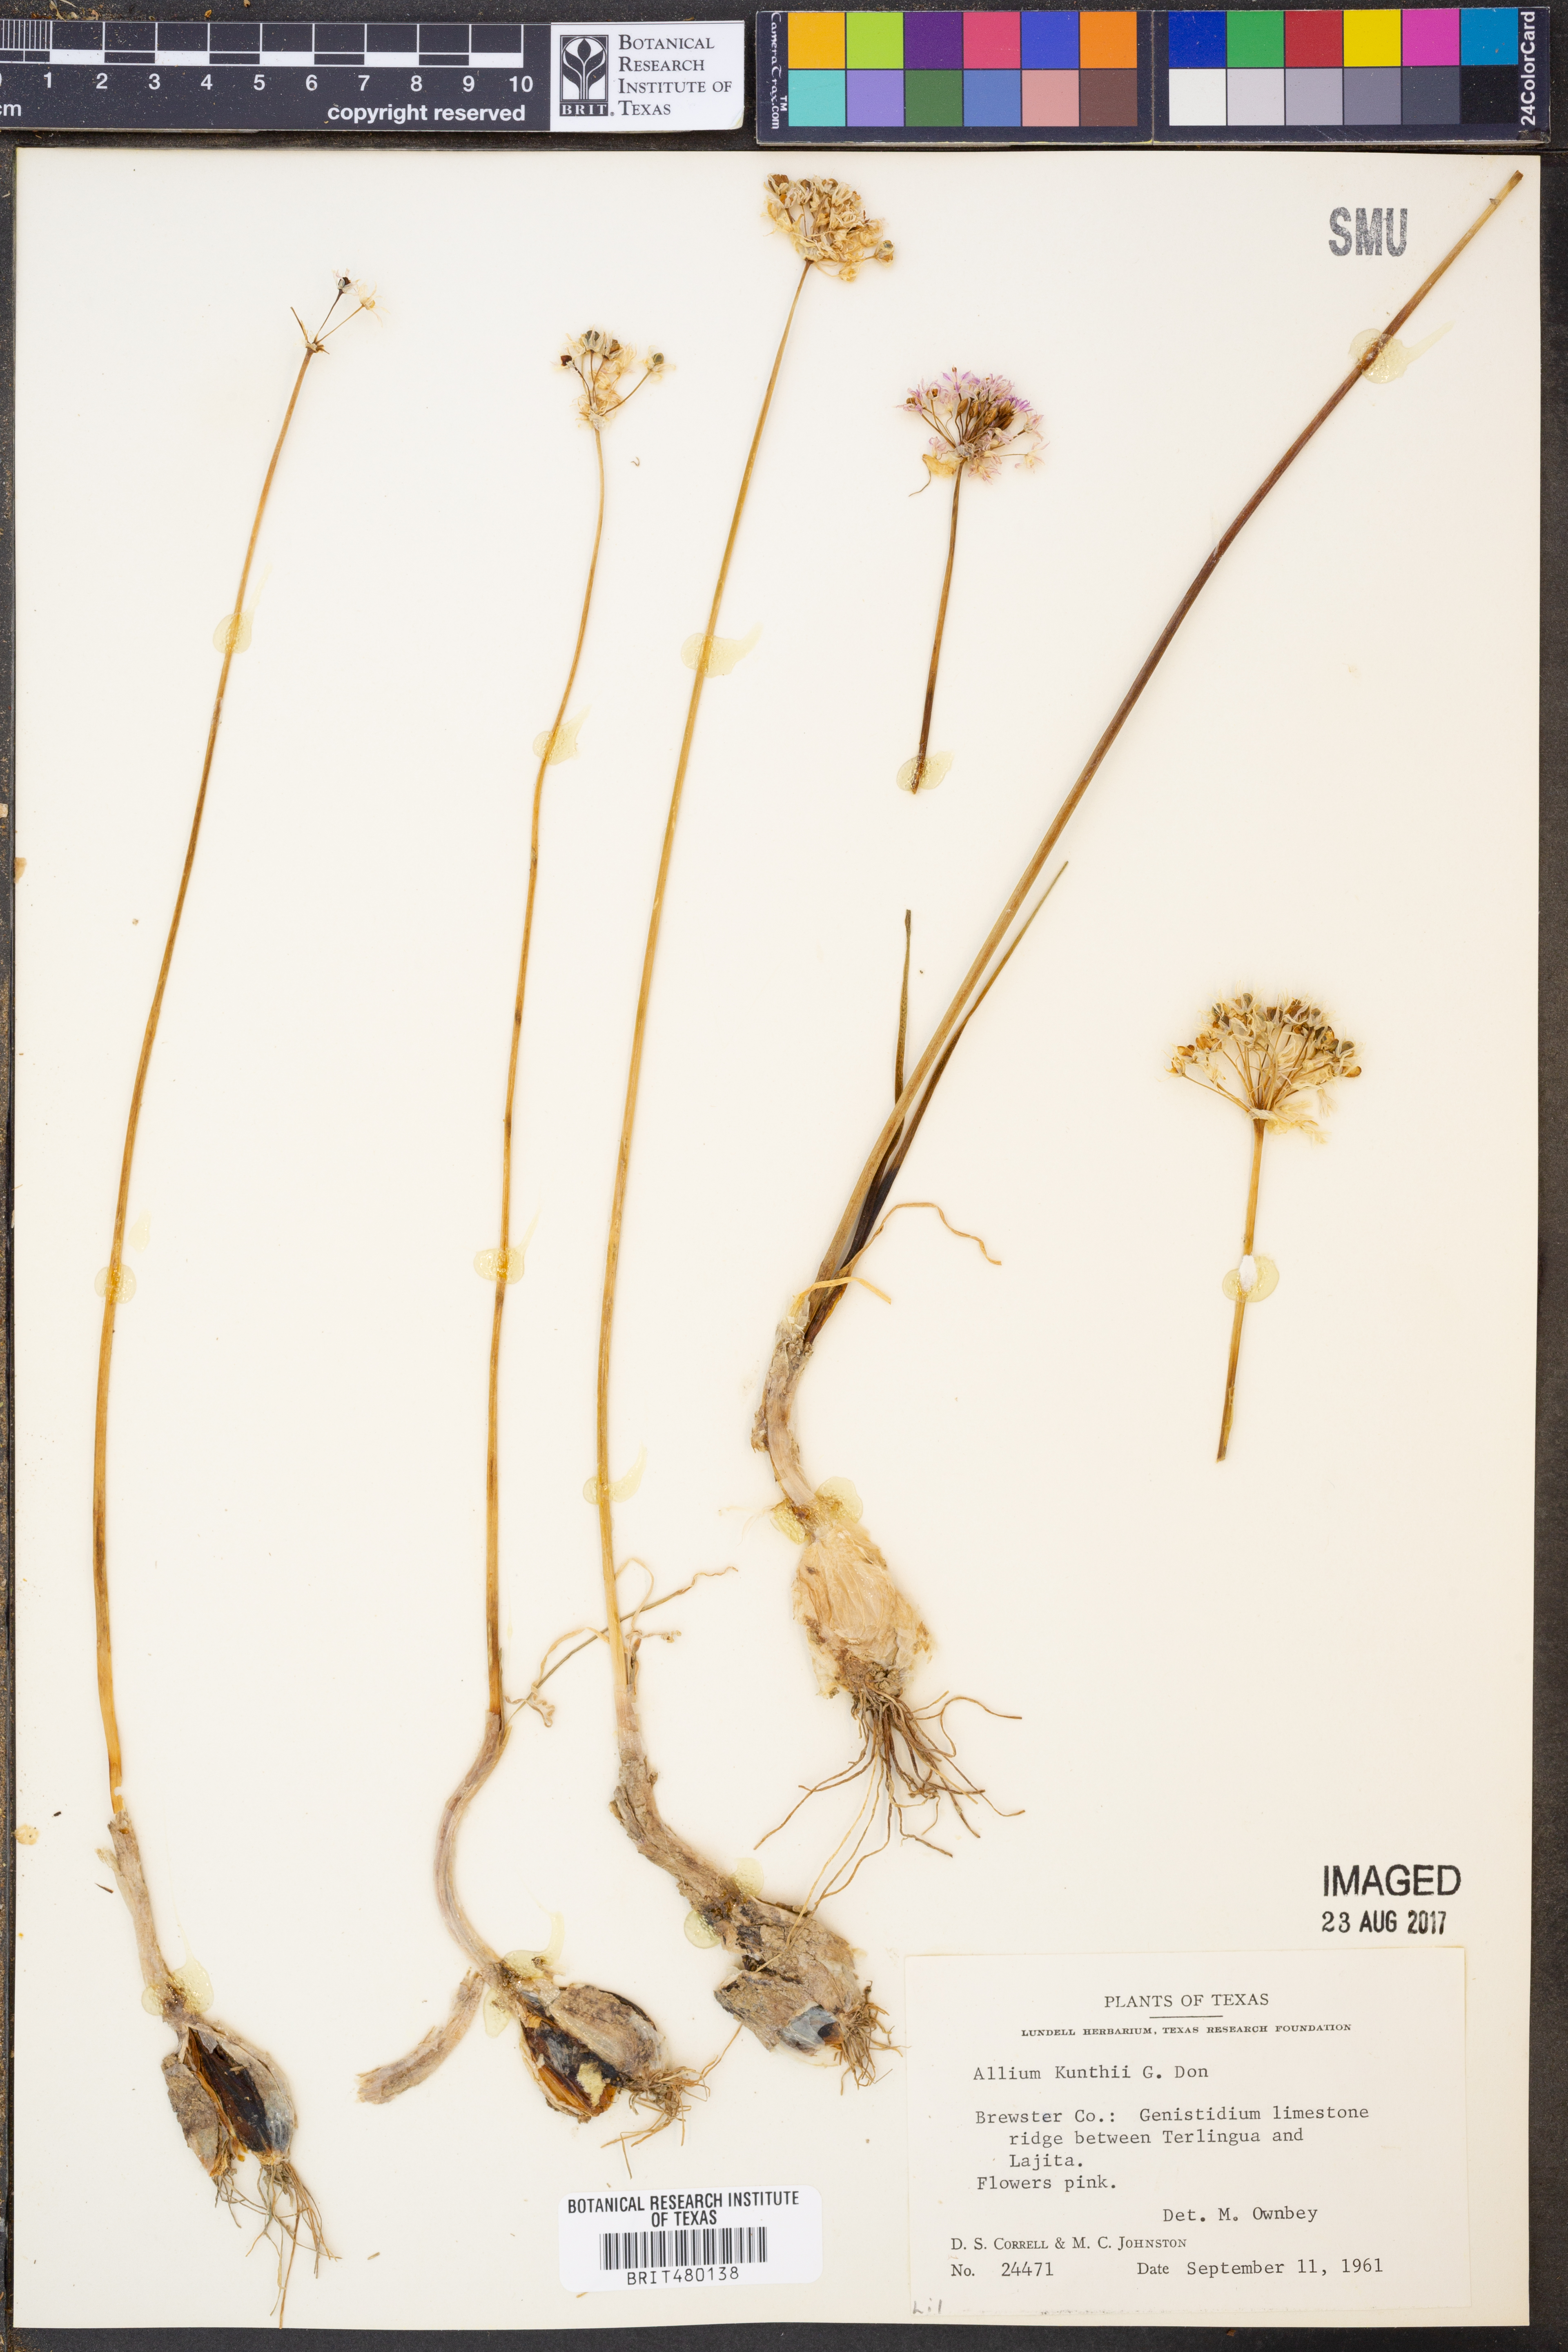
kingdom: Plantae
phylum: Tracheophyta
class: Liliopsida
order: Asparagales
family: Amaryllidaceae
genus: Allium
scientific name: Allium longifolium
